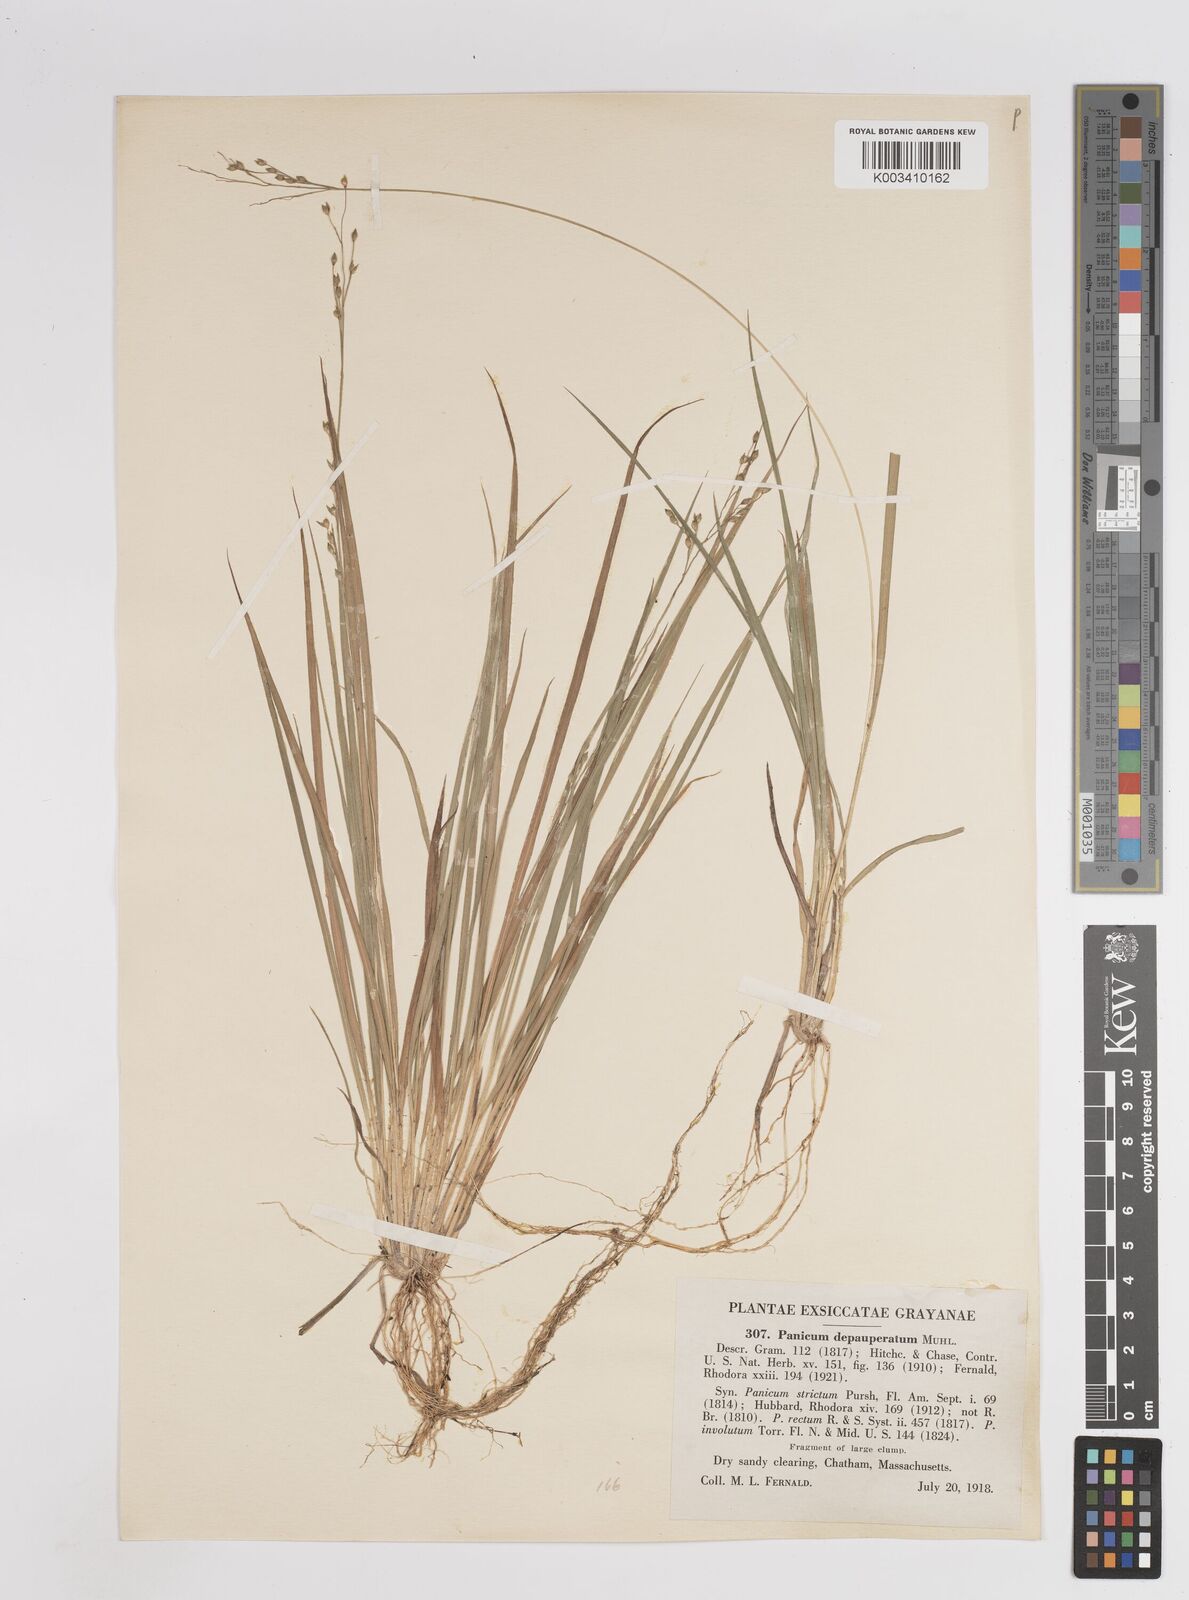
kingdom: Plantae
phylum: Tracheophyta
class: Liliopsida
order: Poales
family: Poaceae
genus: Dichanthelium
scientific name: Dichanthelium depauperatum
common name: Depauperate panicgrass
